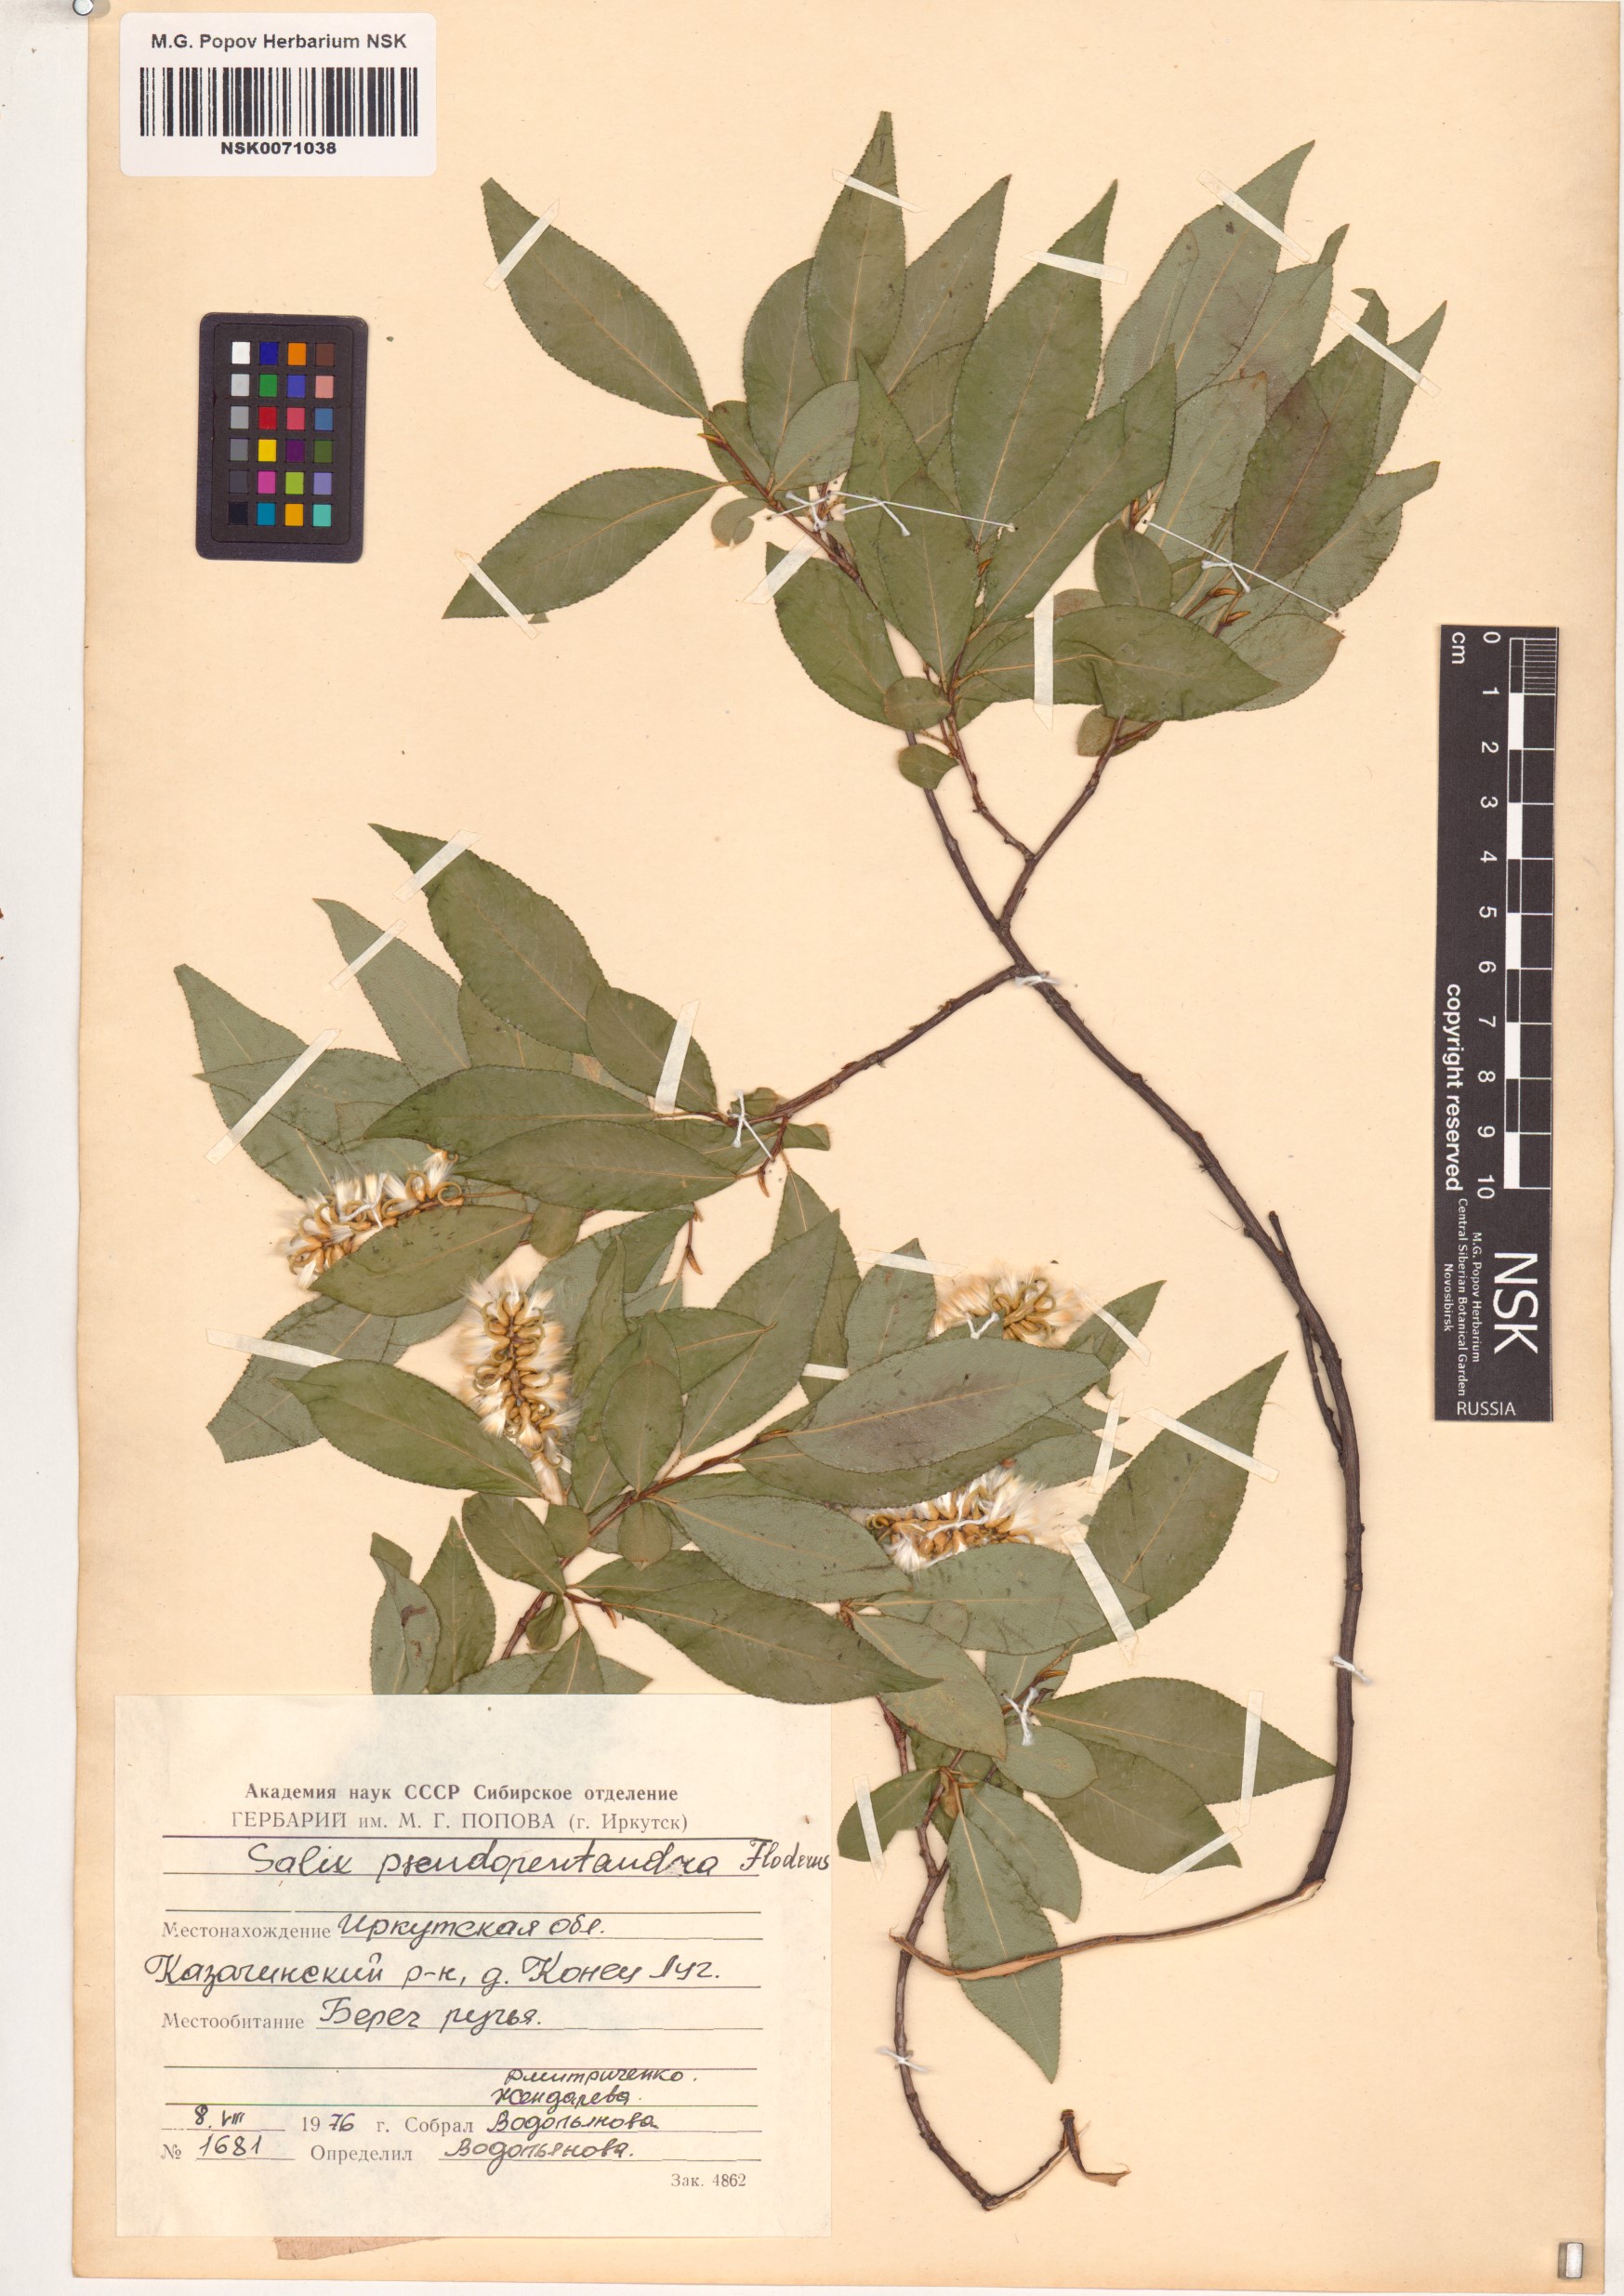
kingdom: Plantae
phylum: Tracheophyta
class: Magnoliopsida
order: Malpighiales
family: Salicaceae
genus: Salix
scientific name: Salix pseudopentandra
